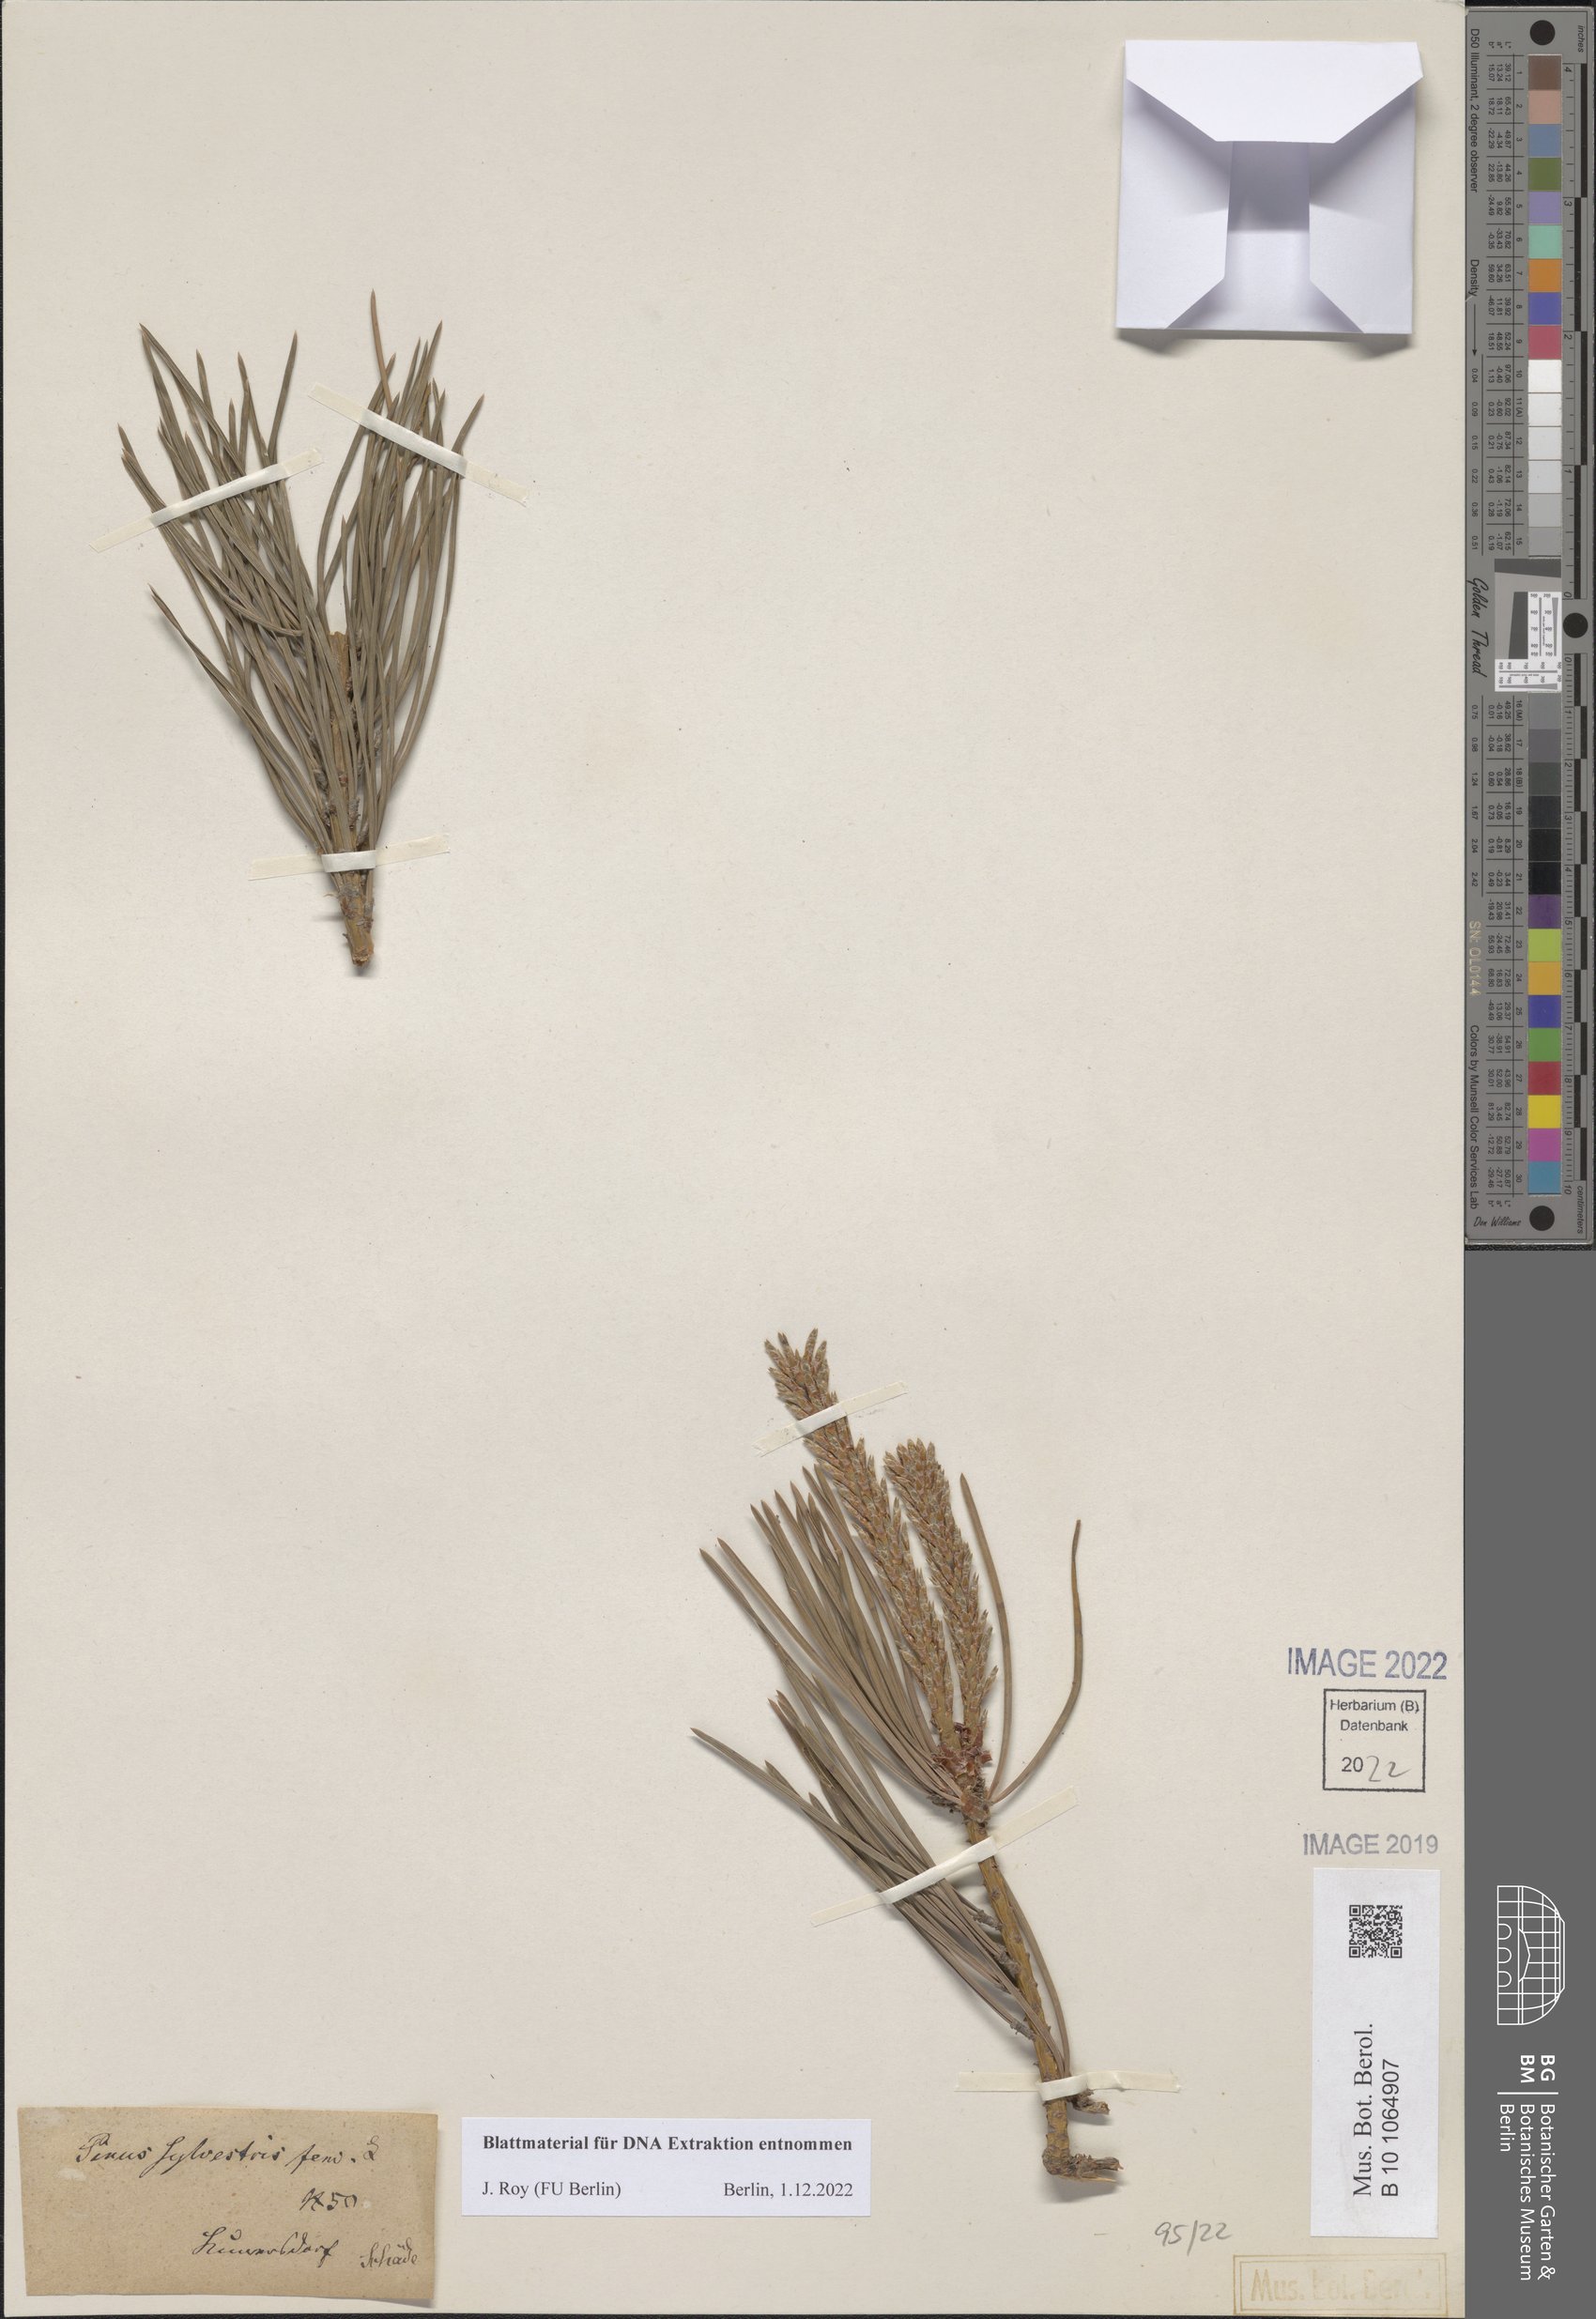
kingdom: Plantae
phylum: Tracheophyta
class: Pinopsida
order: Pinales
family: Pinaceae
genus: Pinus
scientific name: Pinus sylvestris
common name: Scots pine
